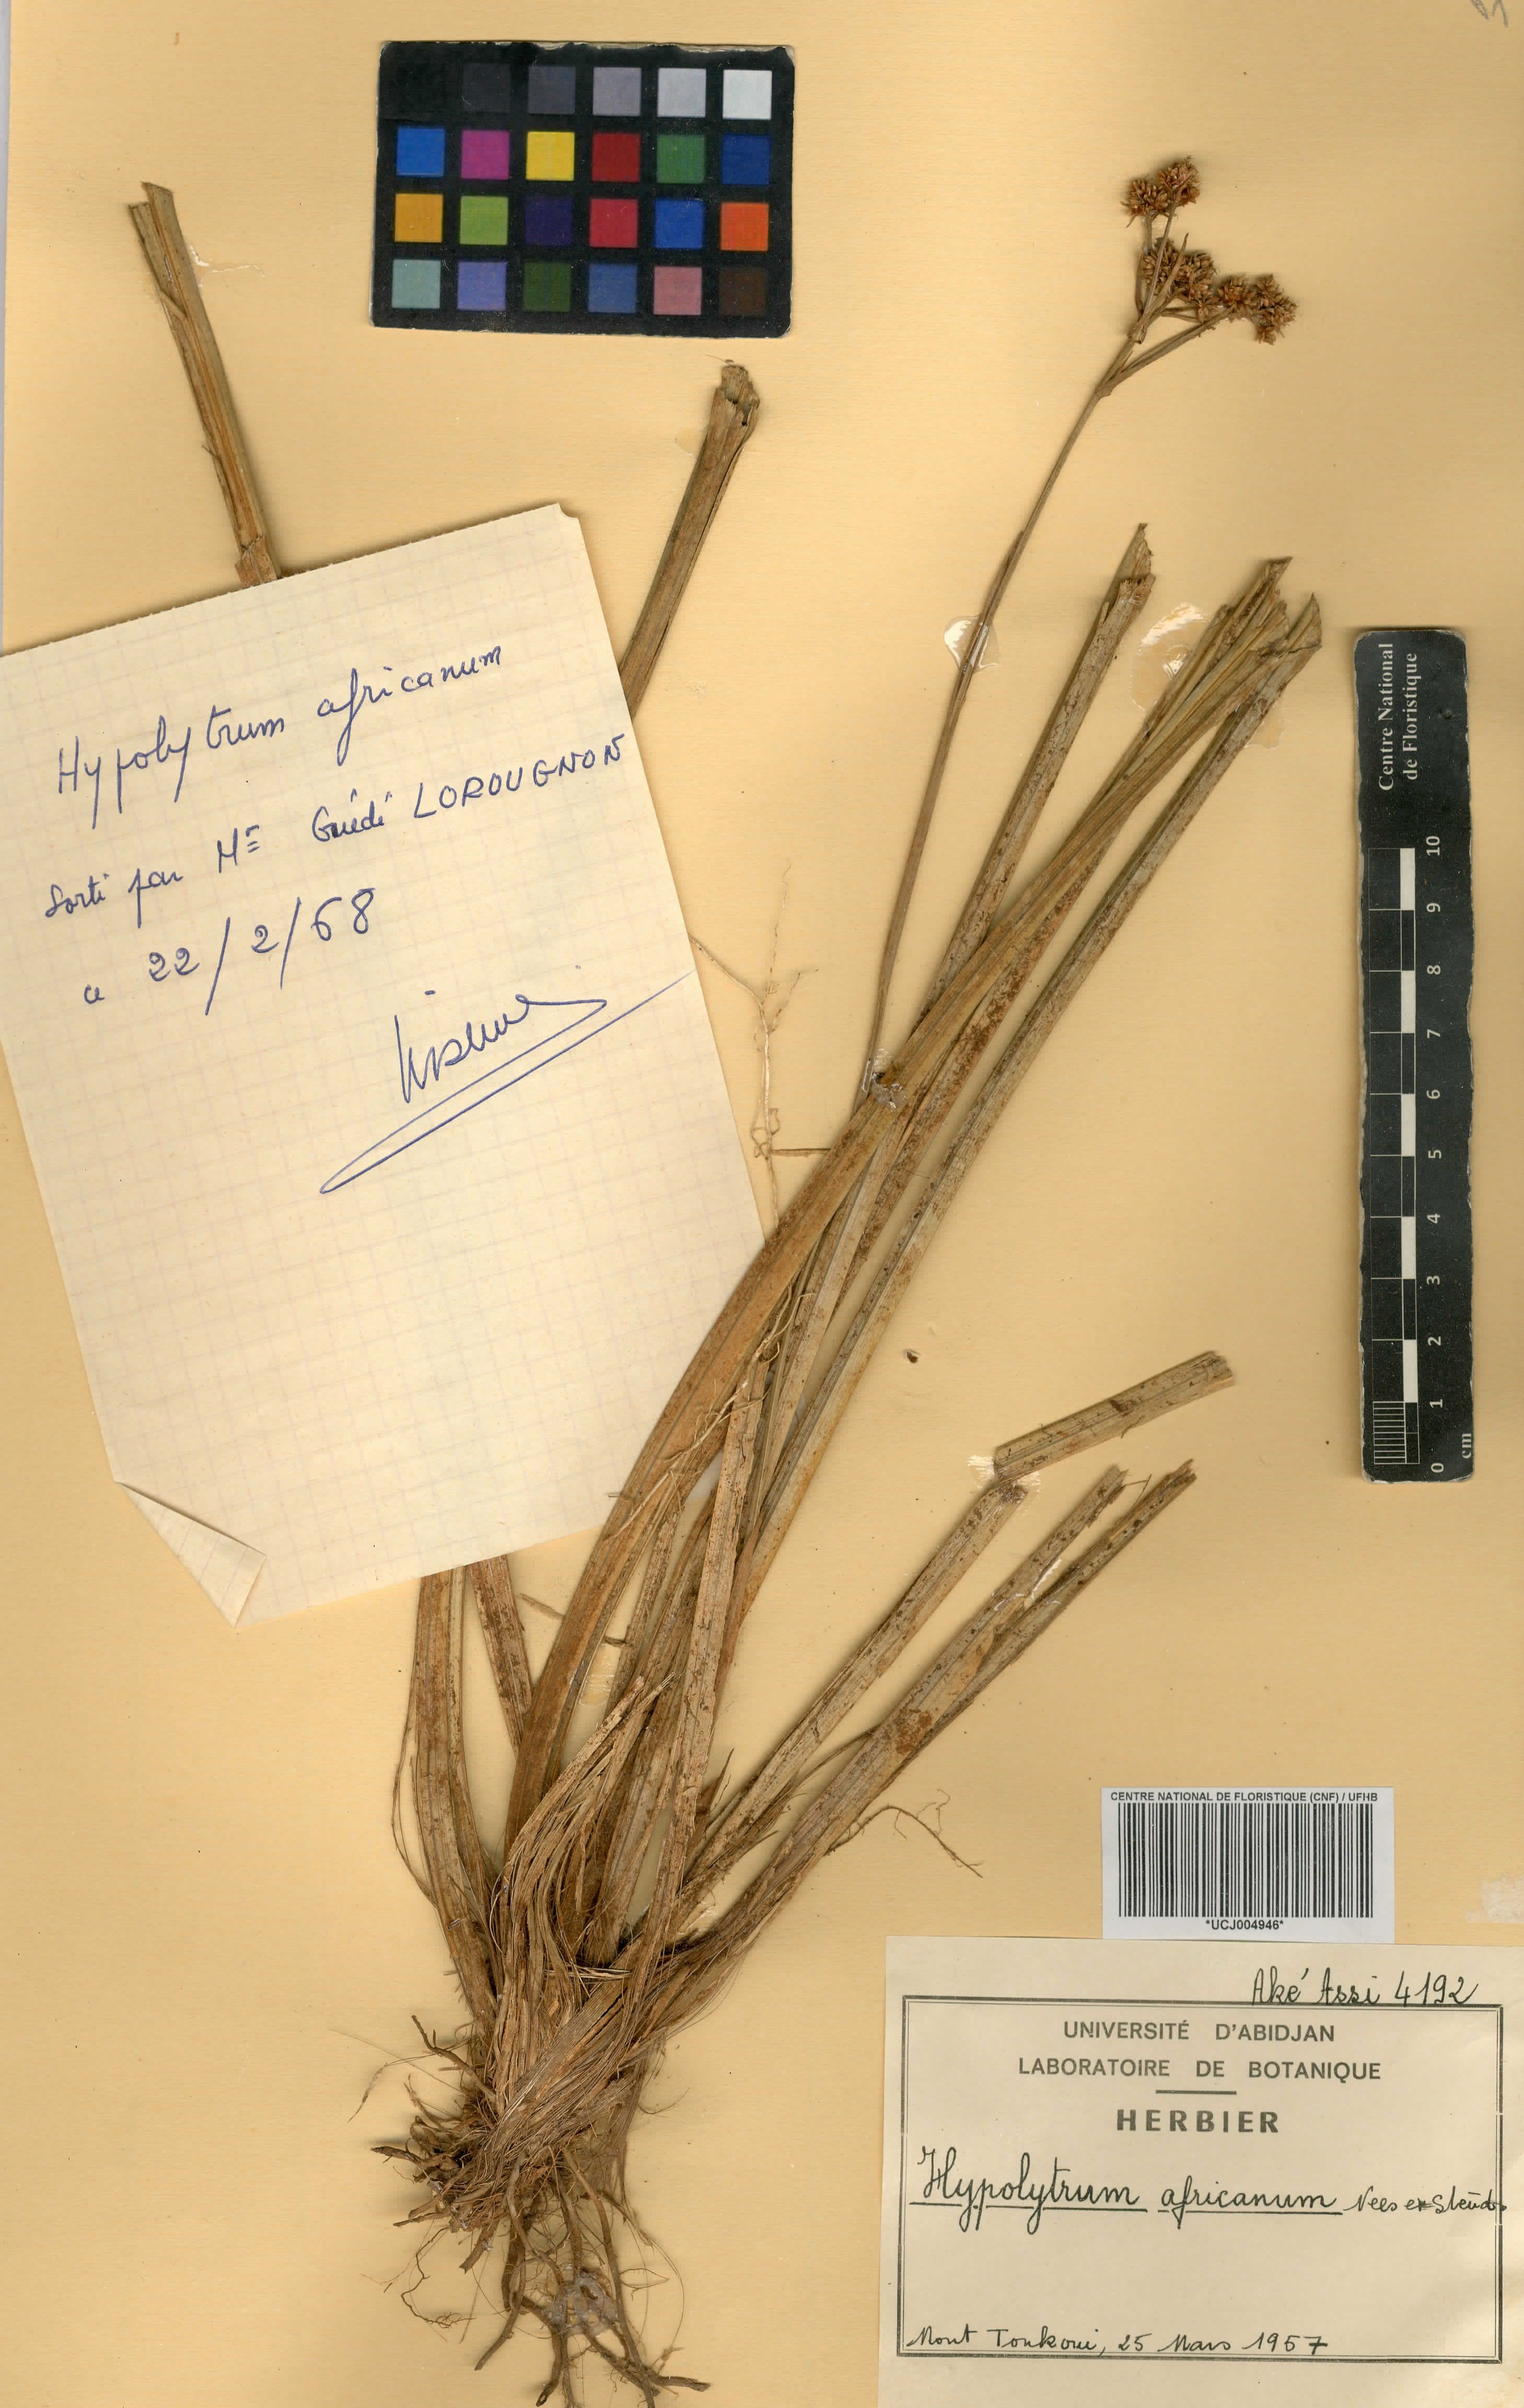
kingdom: Plantae
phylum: Tracheophyta
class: Liliopsida
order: Poales
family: Cyperaceae
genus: Hypolytrum
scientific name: Hypolytrum africanum
